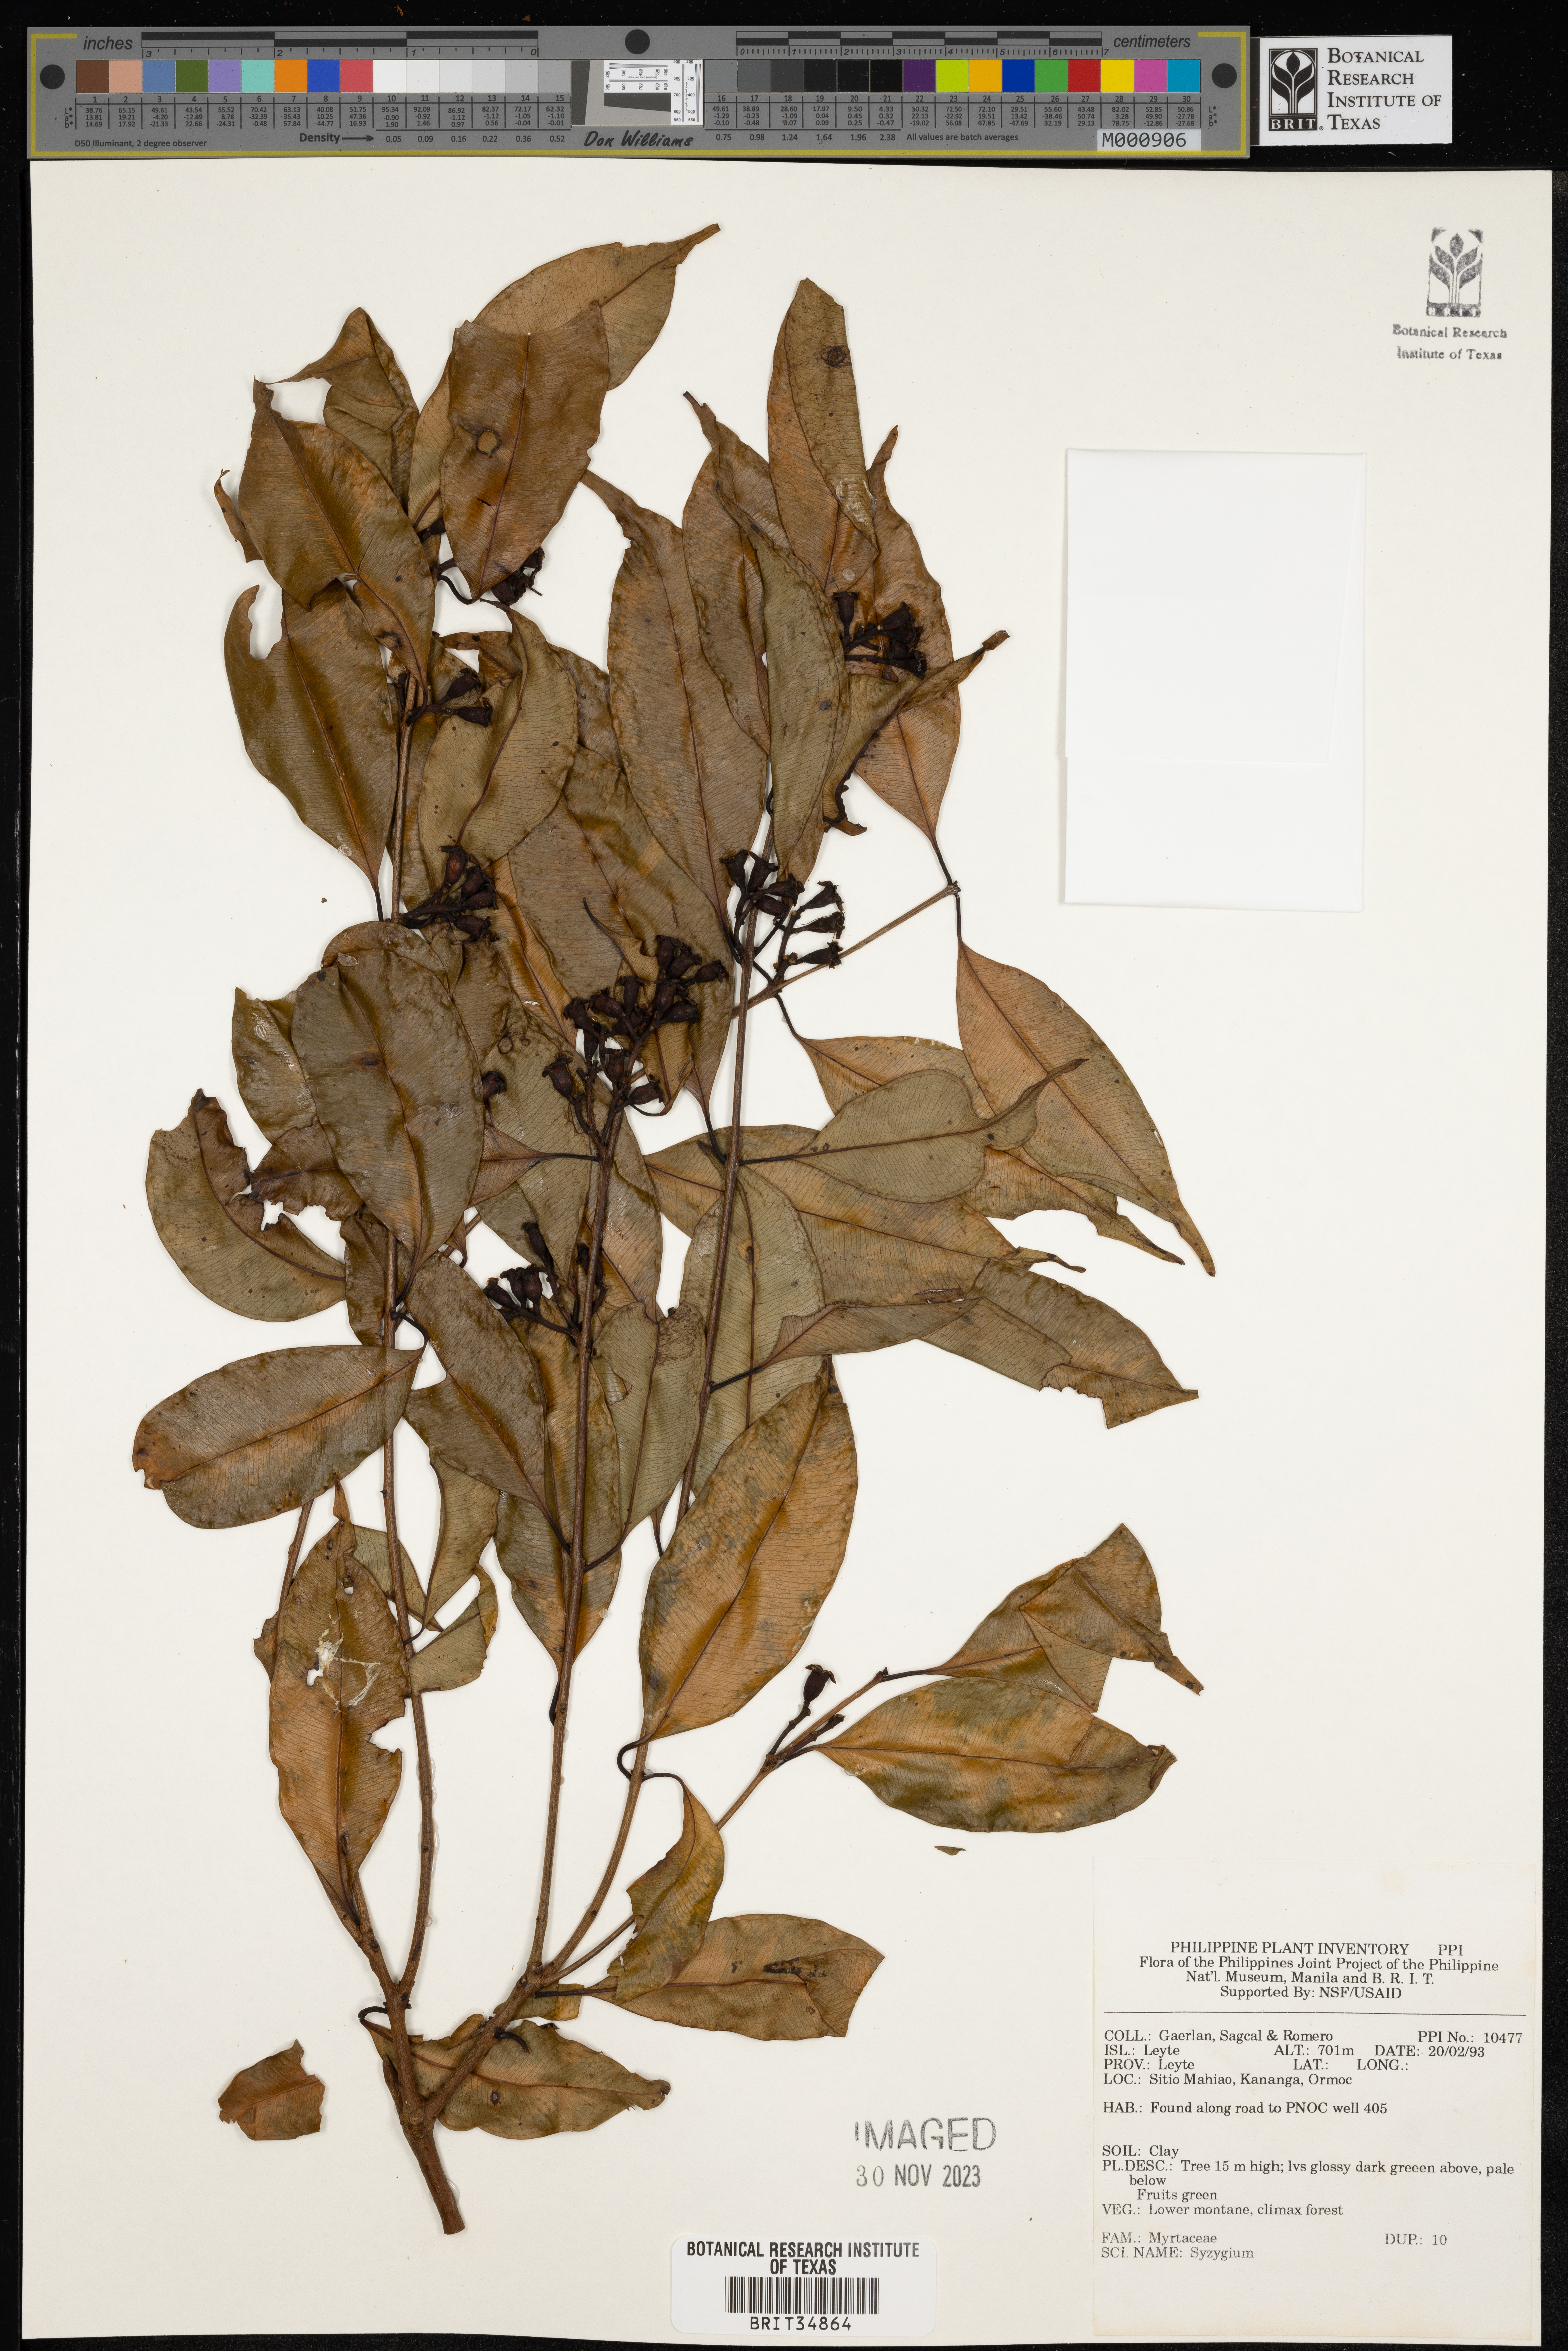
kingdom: Plantae
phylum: Tracheophyta
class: Magnoliopsida
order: Myrtales
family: Myrtaceae
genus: Syzygium
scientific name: Syzygium
